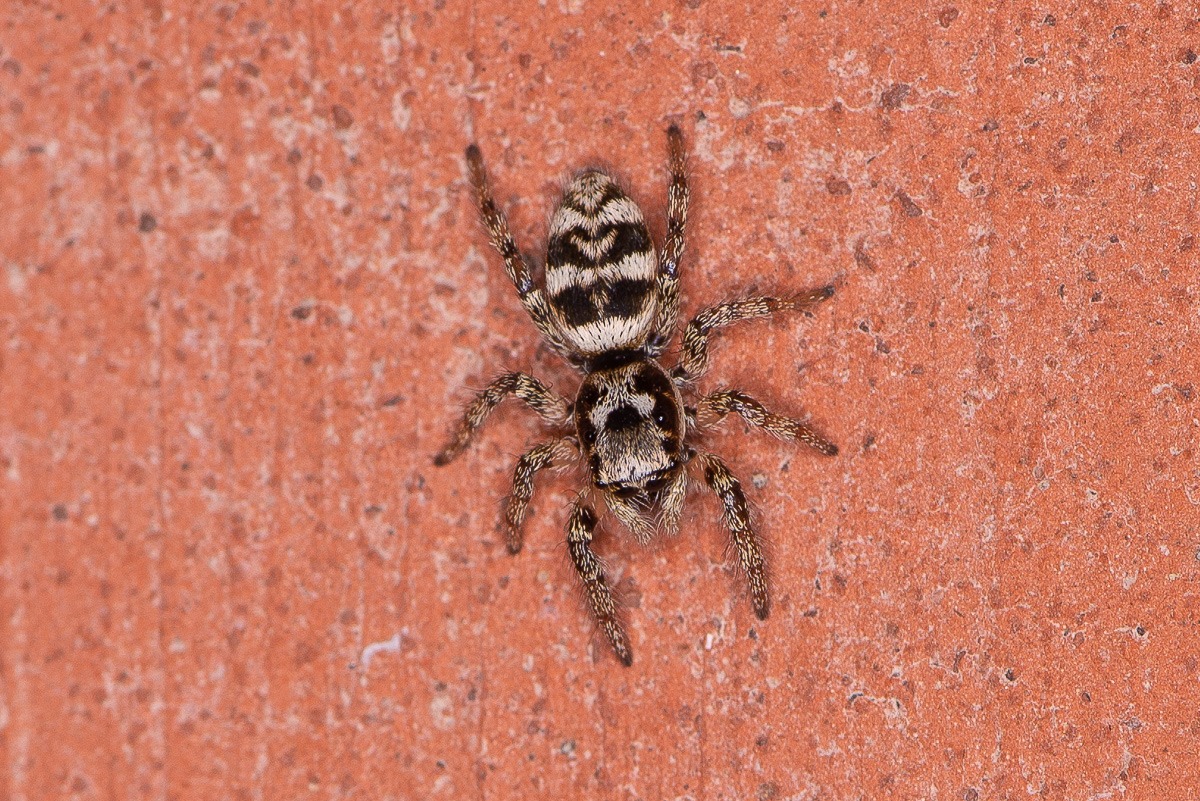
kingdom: Animalia
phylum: Arthropoda
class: Arachnida
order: Araneae
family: Salticidae
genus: Salticus
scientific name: Salticus scenicus
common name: Almindelig zebraedderkop
